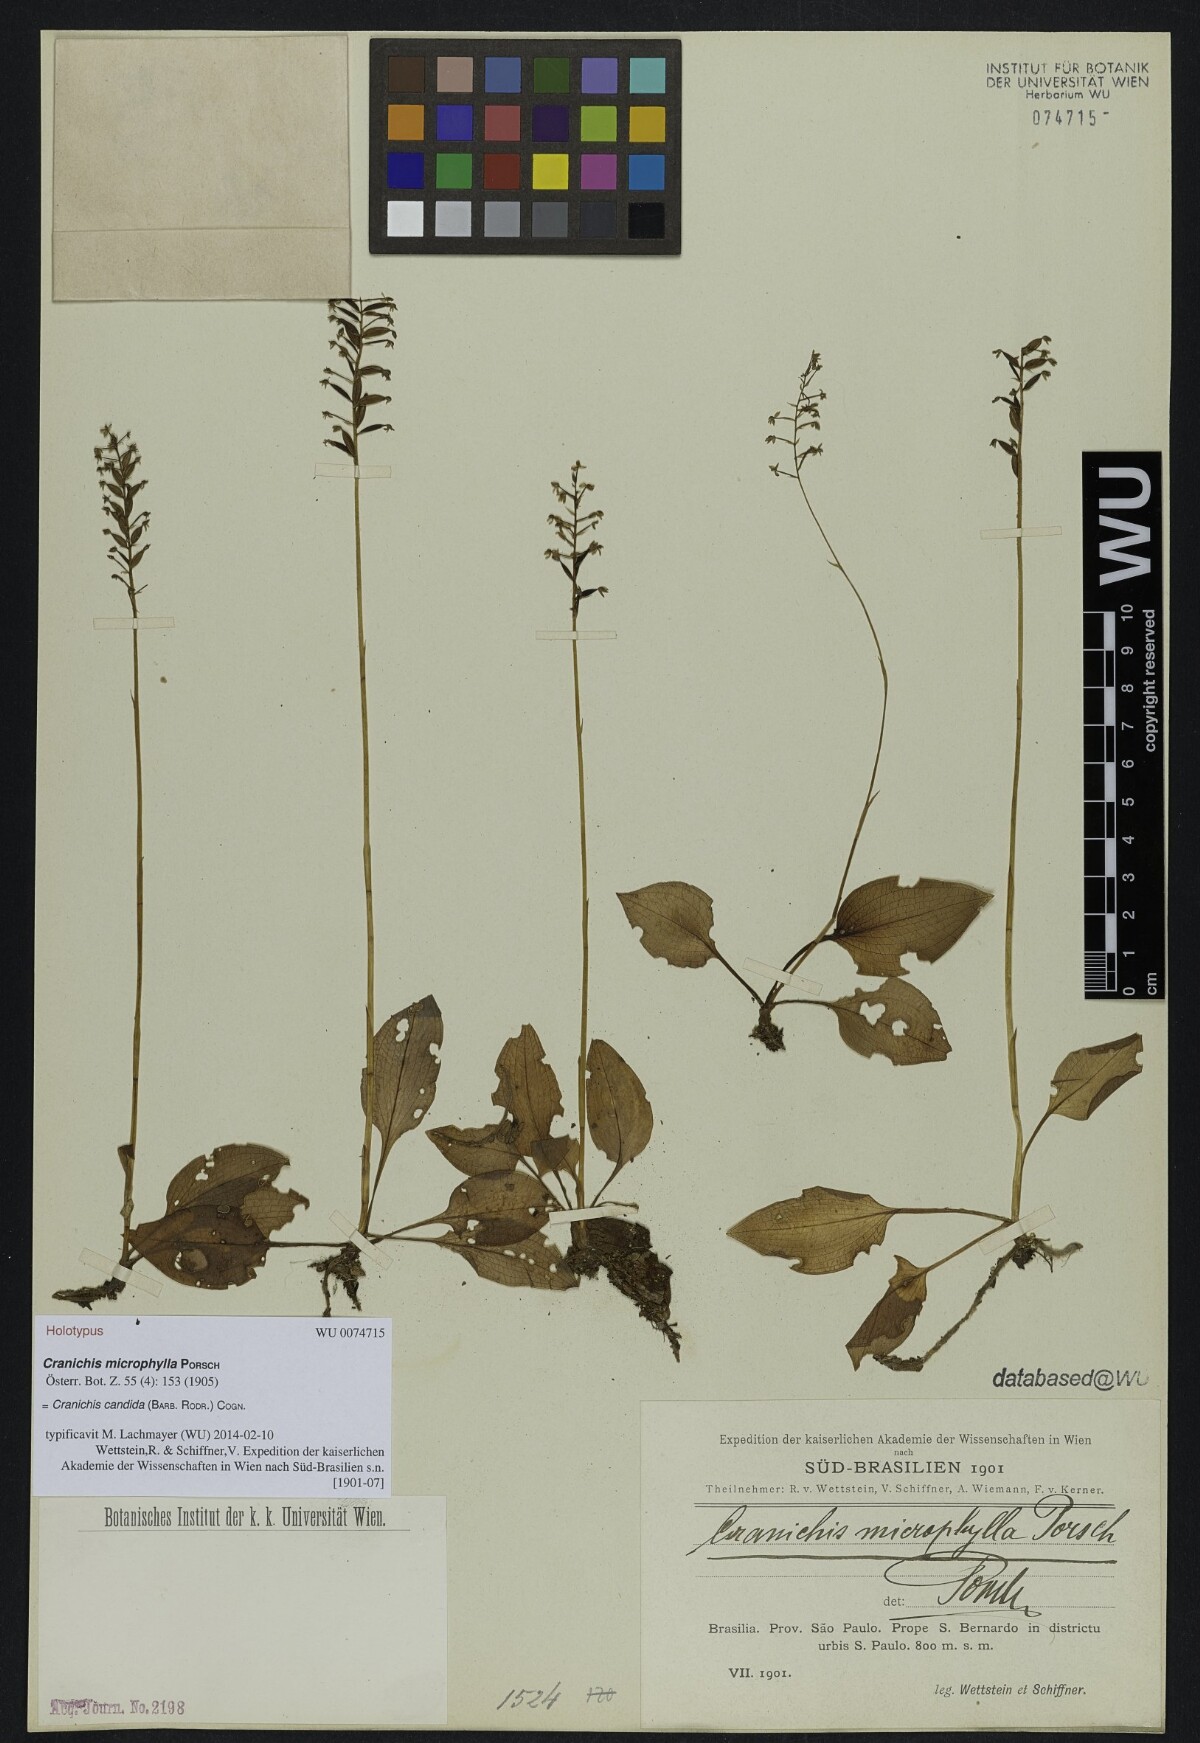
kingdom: Plantae
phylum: Tracheophyta
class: Liliopsida
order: Asparagales
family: Orchidaceae
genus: Cranichis
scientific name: Cranichis candida
